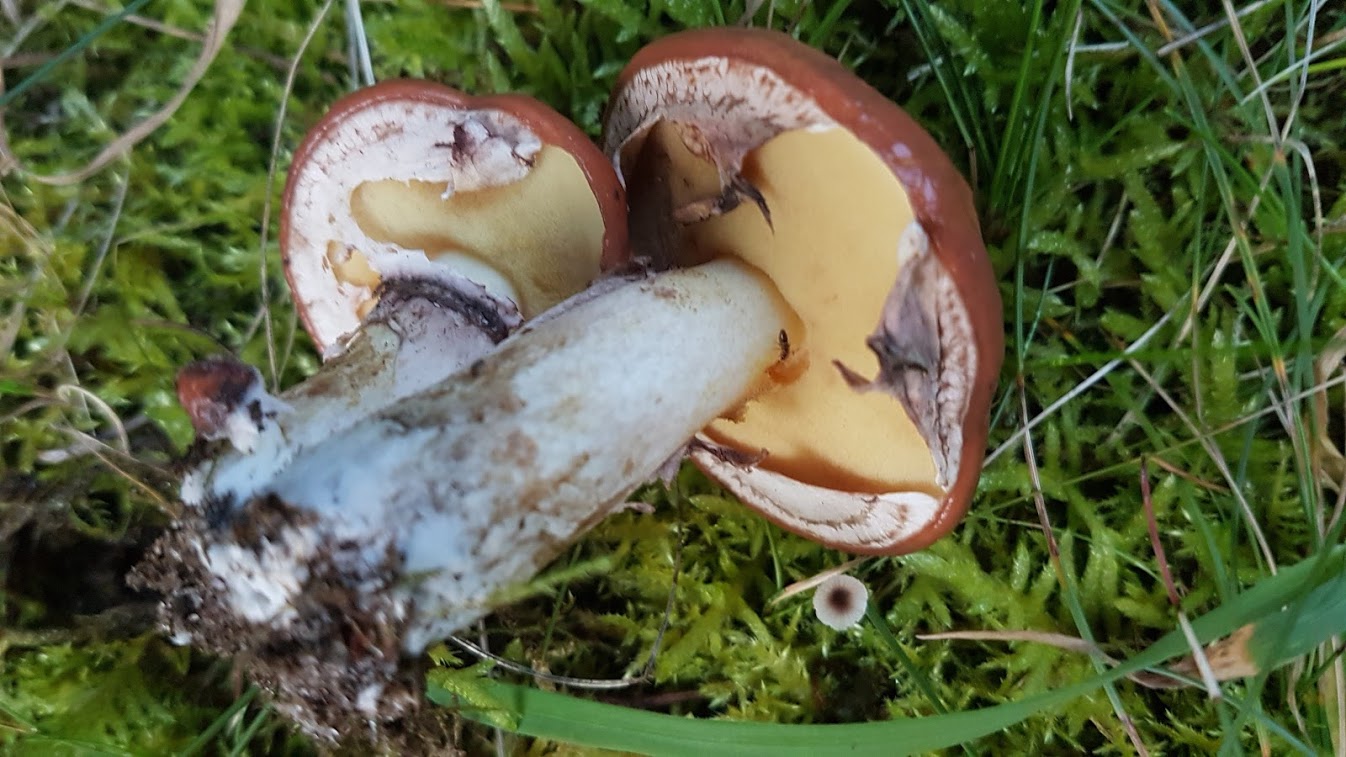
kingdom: Fungi
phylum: Basidiomycota
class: Agaricomycetes
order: Boletales
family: Suillaceae
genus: Suillus
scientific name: Suillus luteus
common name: brungul slimrørhat
